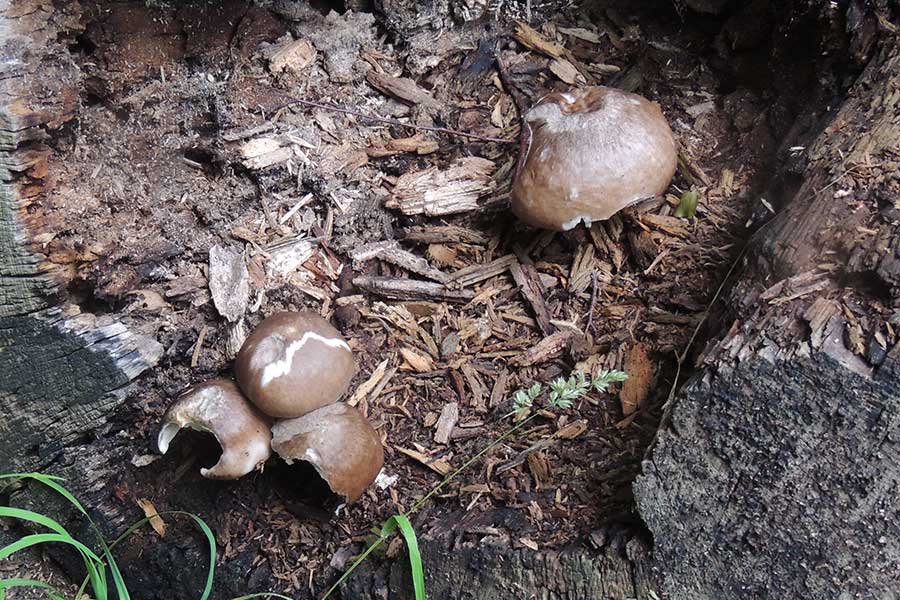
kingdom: Fungi
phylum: Basidiomycota
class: Agaricomycetes
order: Agaricales
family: Pluteaceae
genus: Pluteus
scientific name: Pluteus cervinus
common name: sodfarvet skærmhat
